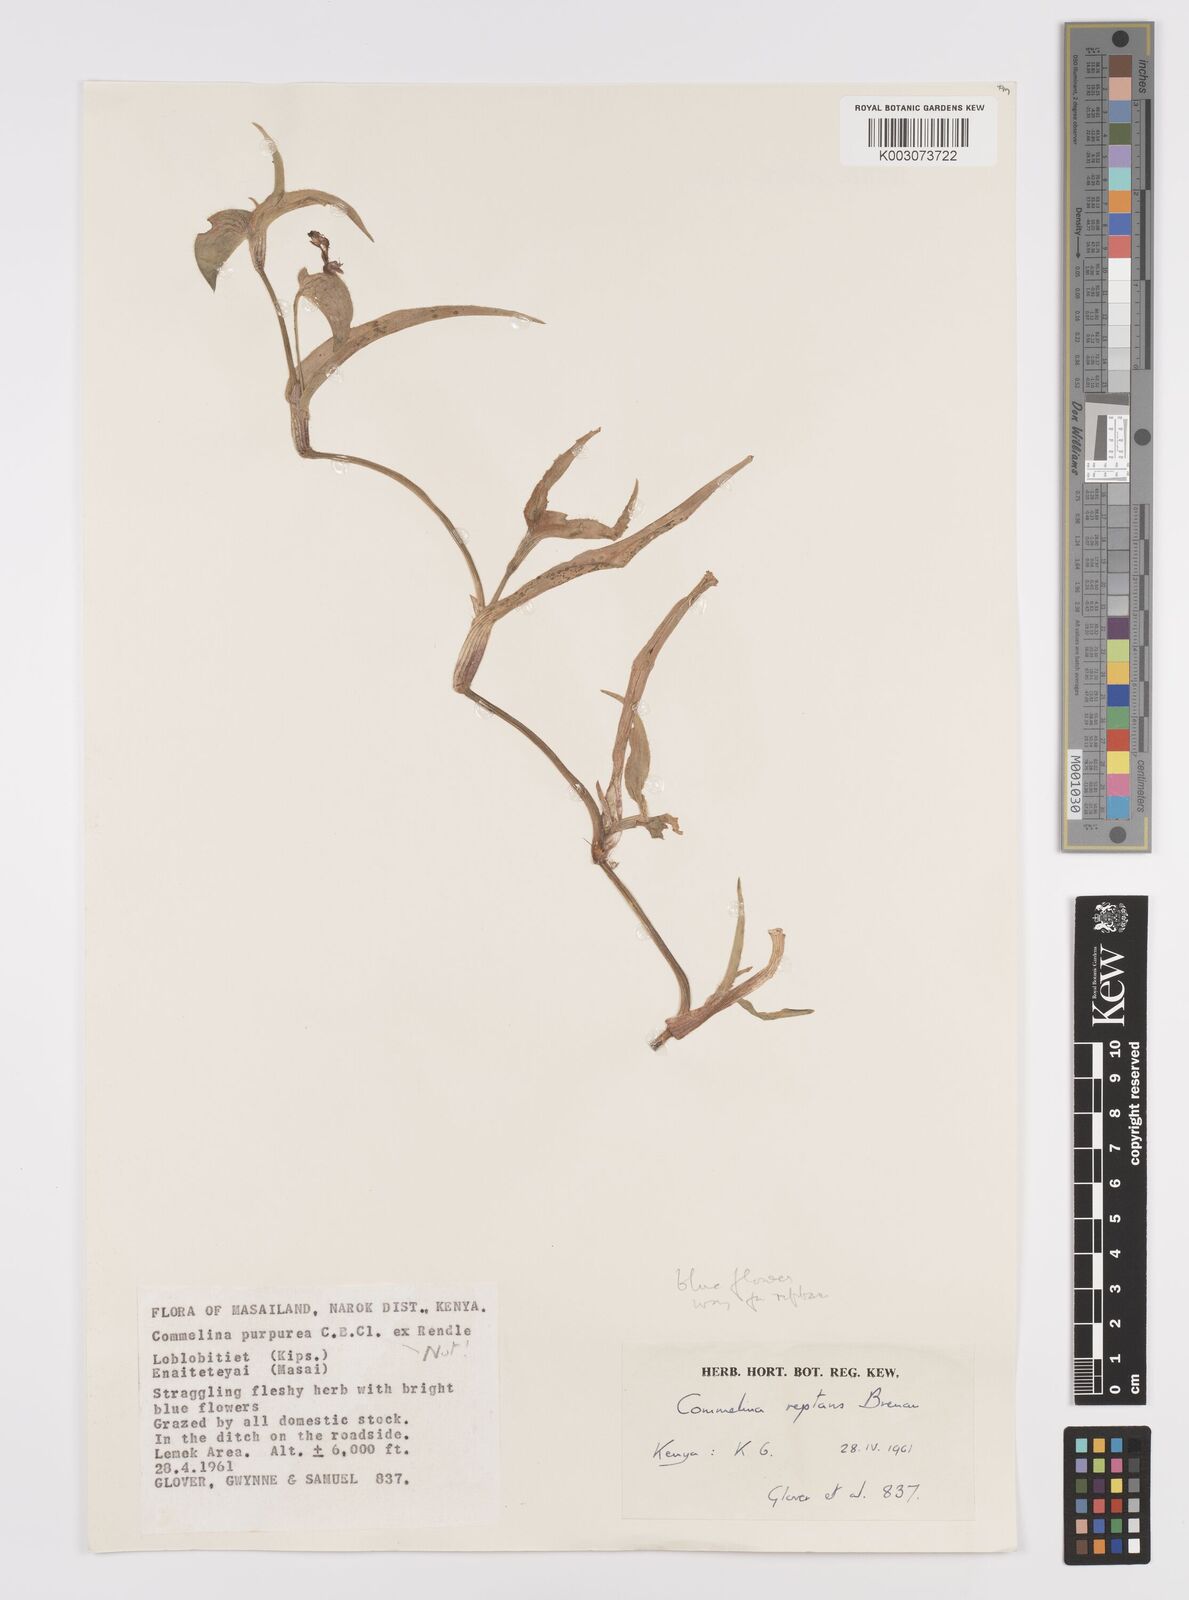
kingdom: Plantae
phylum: Tracheophyta
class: Liliopsida
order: Commelinales
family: Commelinaceae
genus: Commelina
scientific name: Commelina reptans
